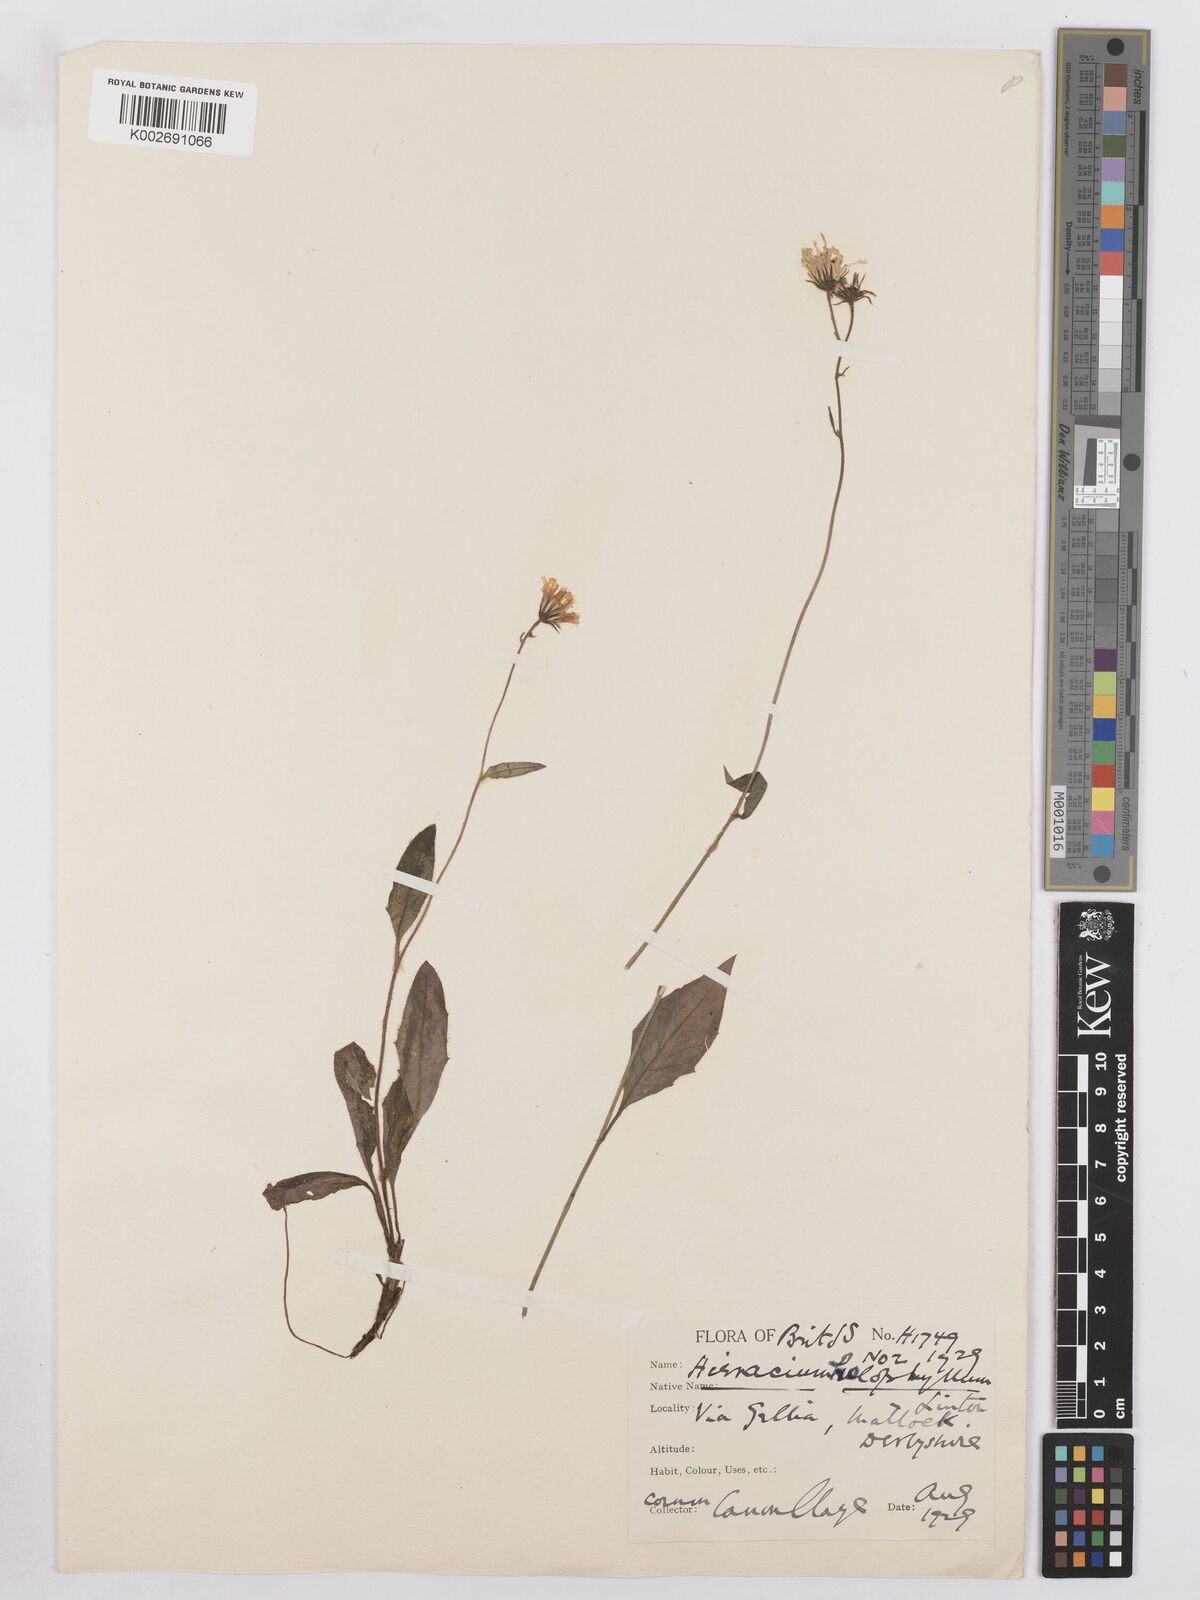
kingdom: Plantae
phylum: Tracheophyta
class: Magnoliopsida
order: Asterales
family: Asteraceae
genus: Hieracium
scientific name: Hieracium holophyllum
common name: Undivided-leaved hawkweed
